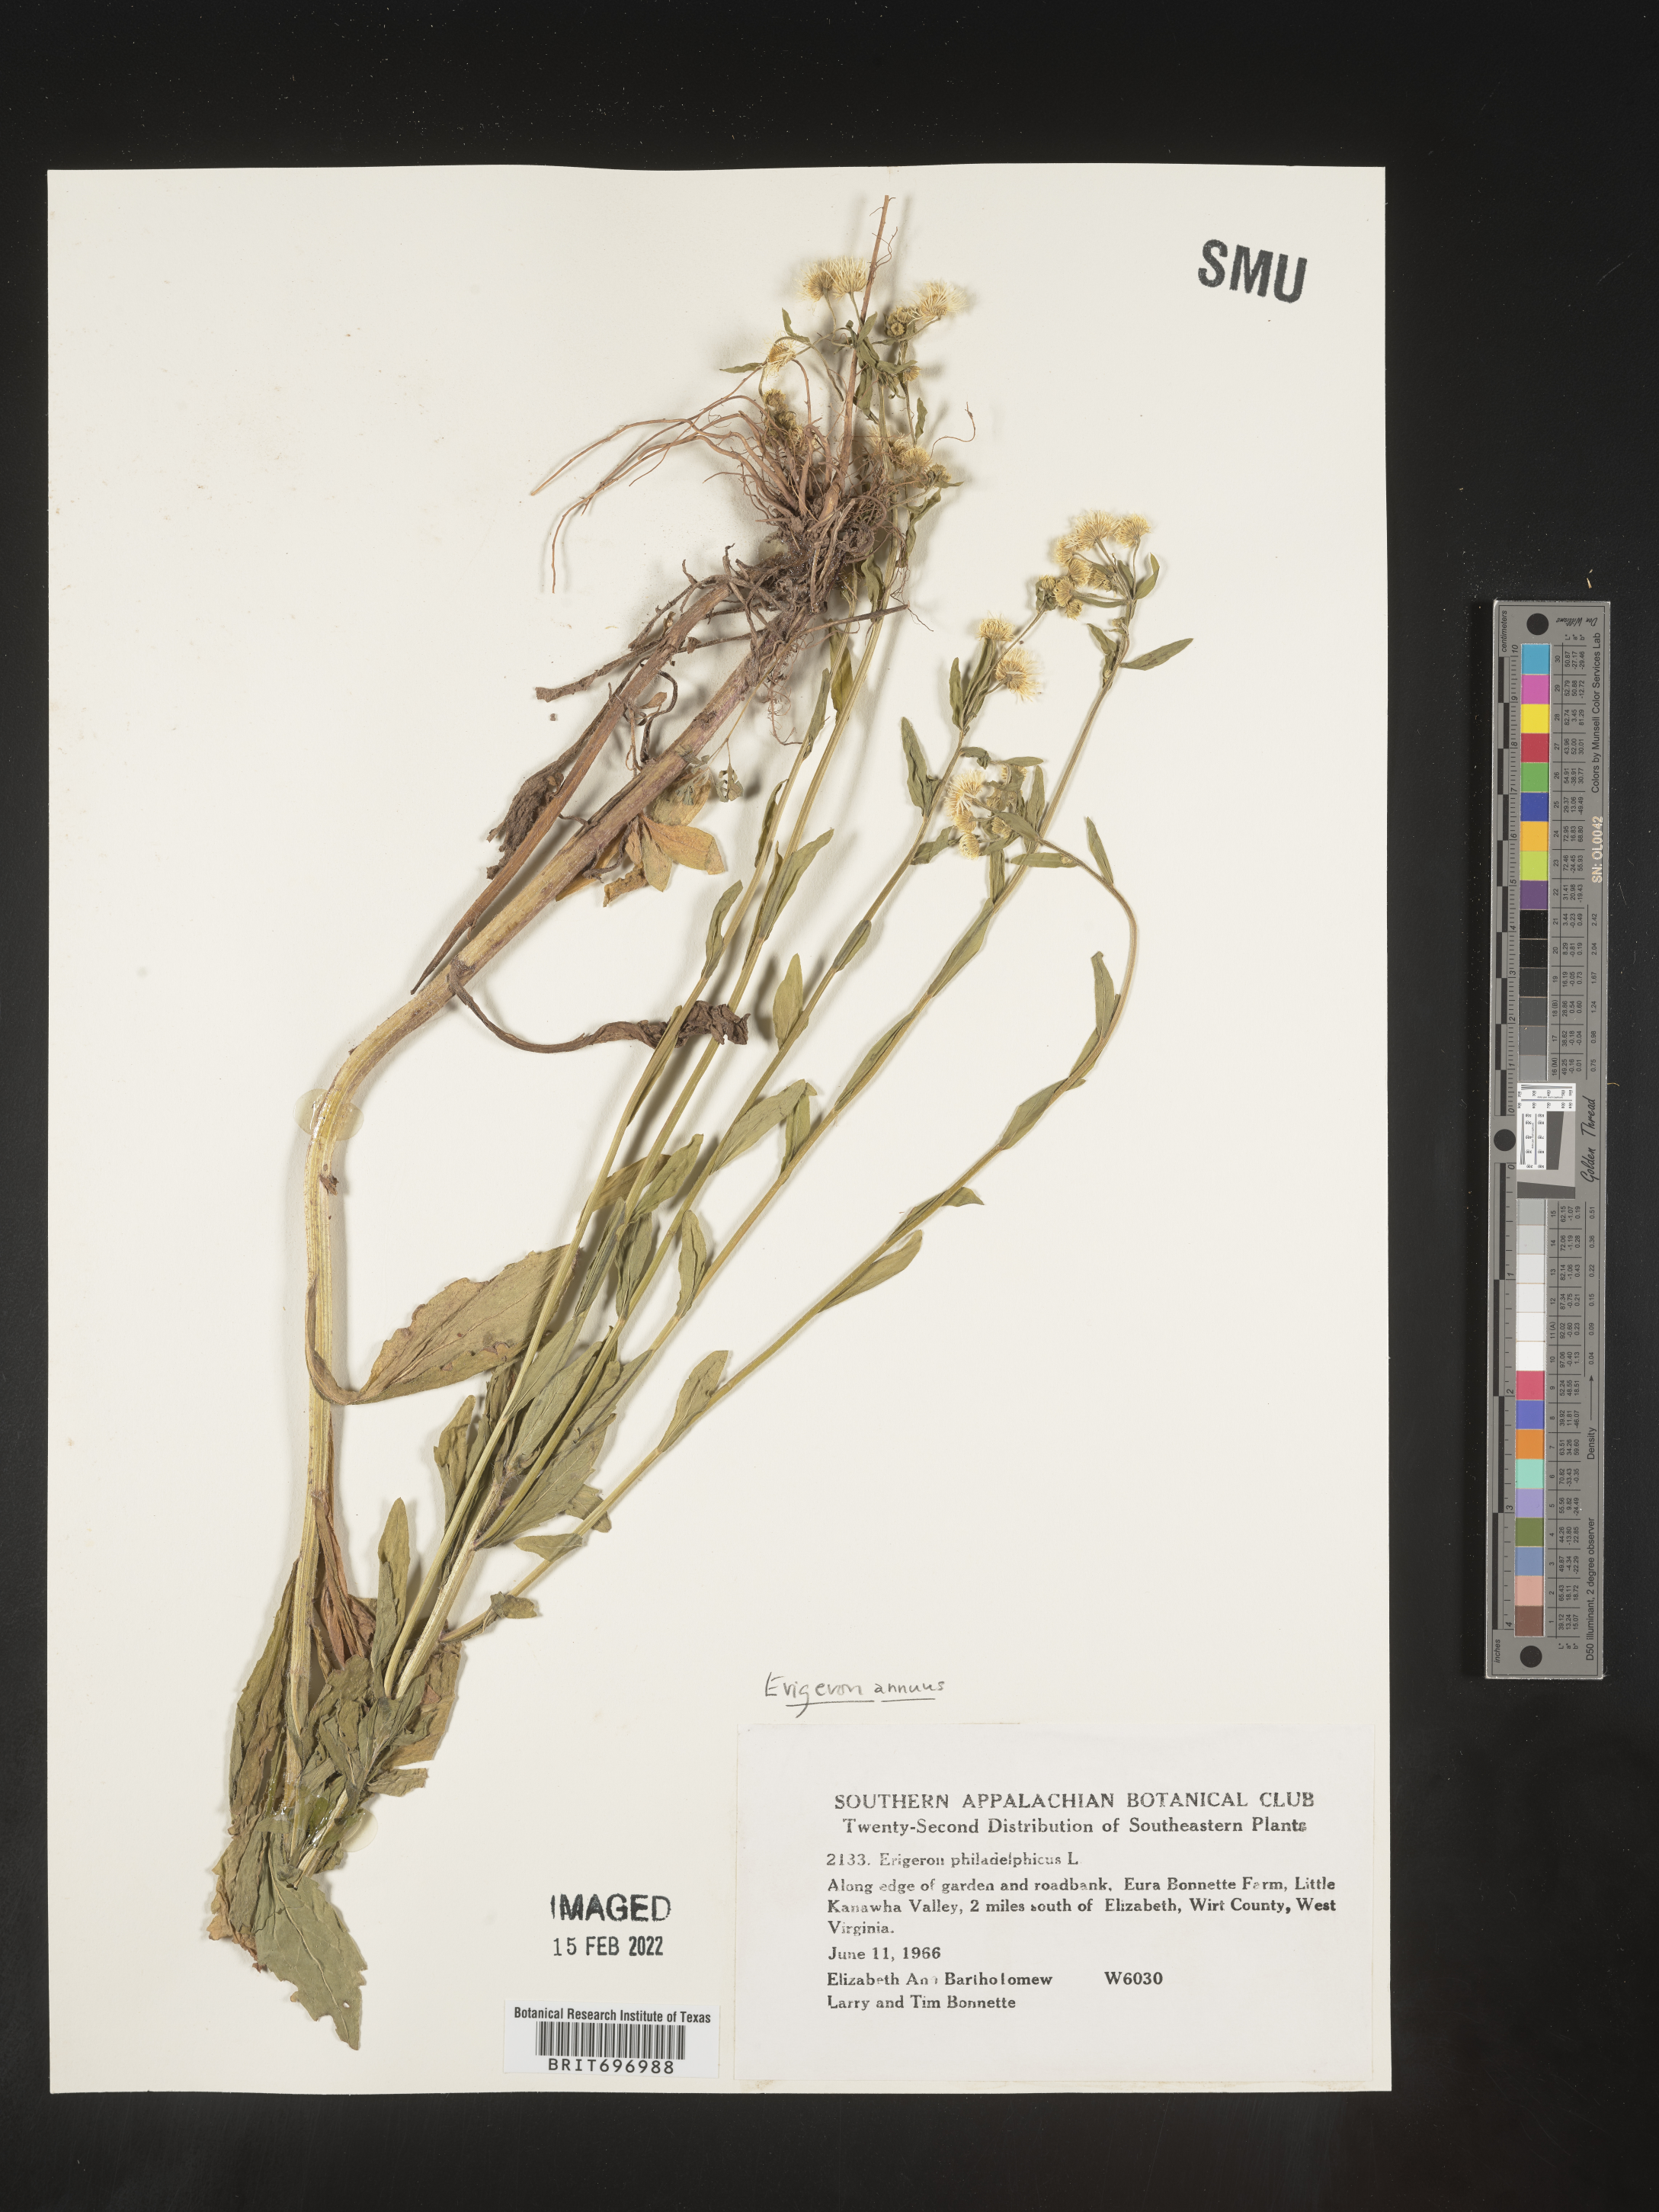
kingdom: Plantae
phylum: Tracheophyta
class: Magnoliopsida
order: Asterales
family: Asteraceae
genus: Erigeron
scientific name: Erigeron annuus
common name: Tall fleabane
